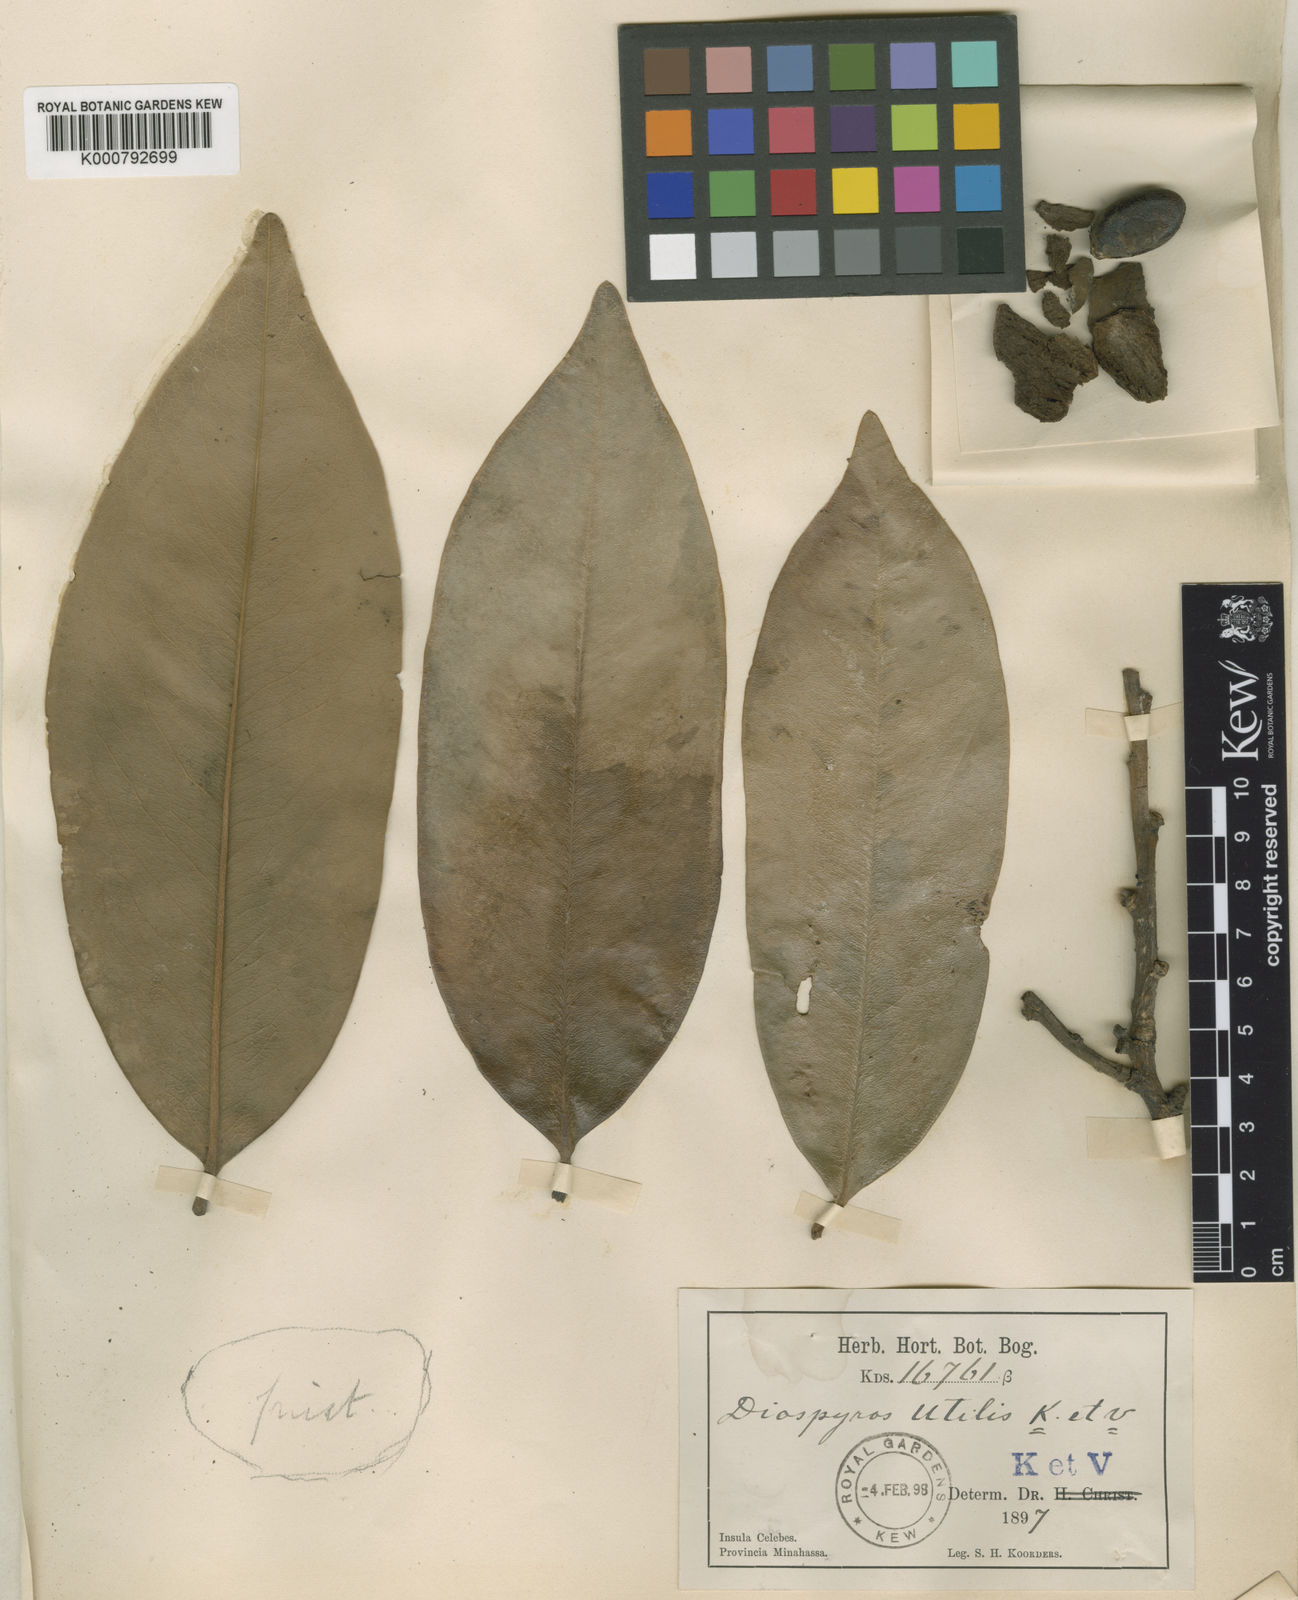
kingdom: Plantae
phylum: Tracheophyta
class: Magnoliopsida
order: Ericales
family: Ebenaceae
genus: Diospyros
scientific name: Diospyros rumphii
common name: Macassar ebony
